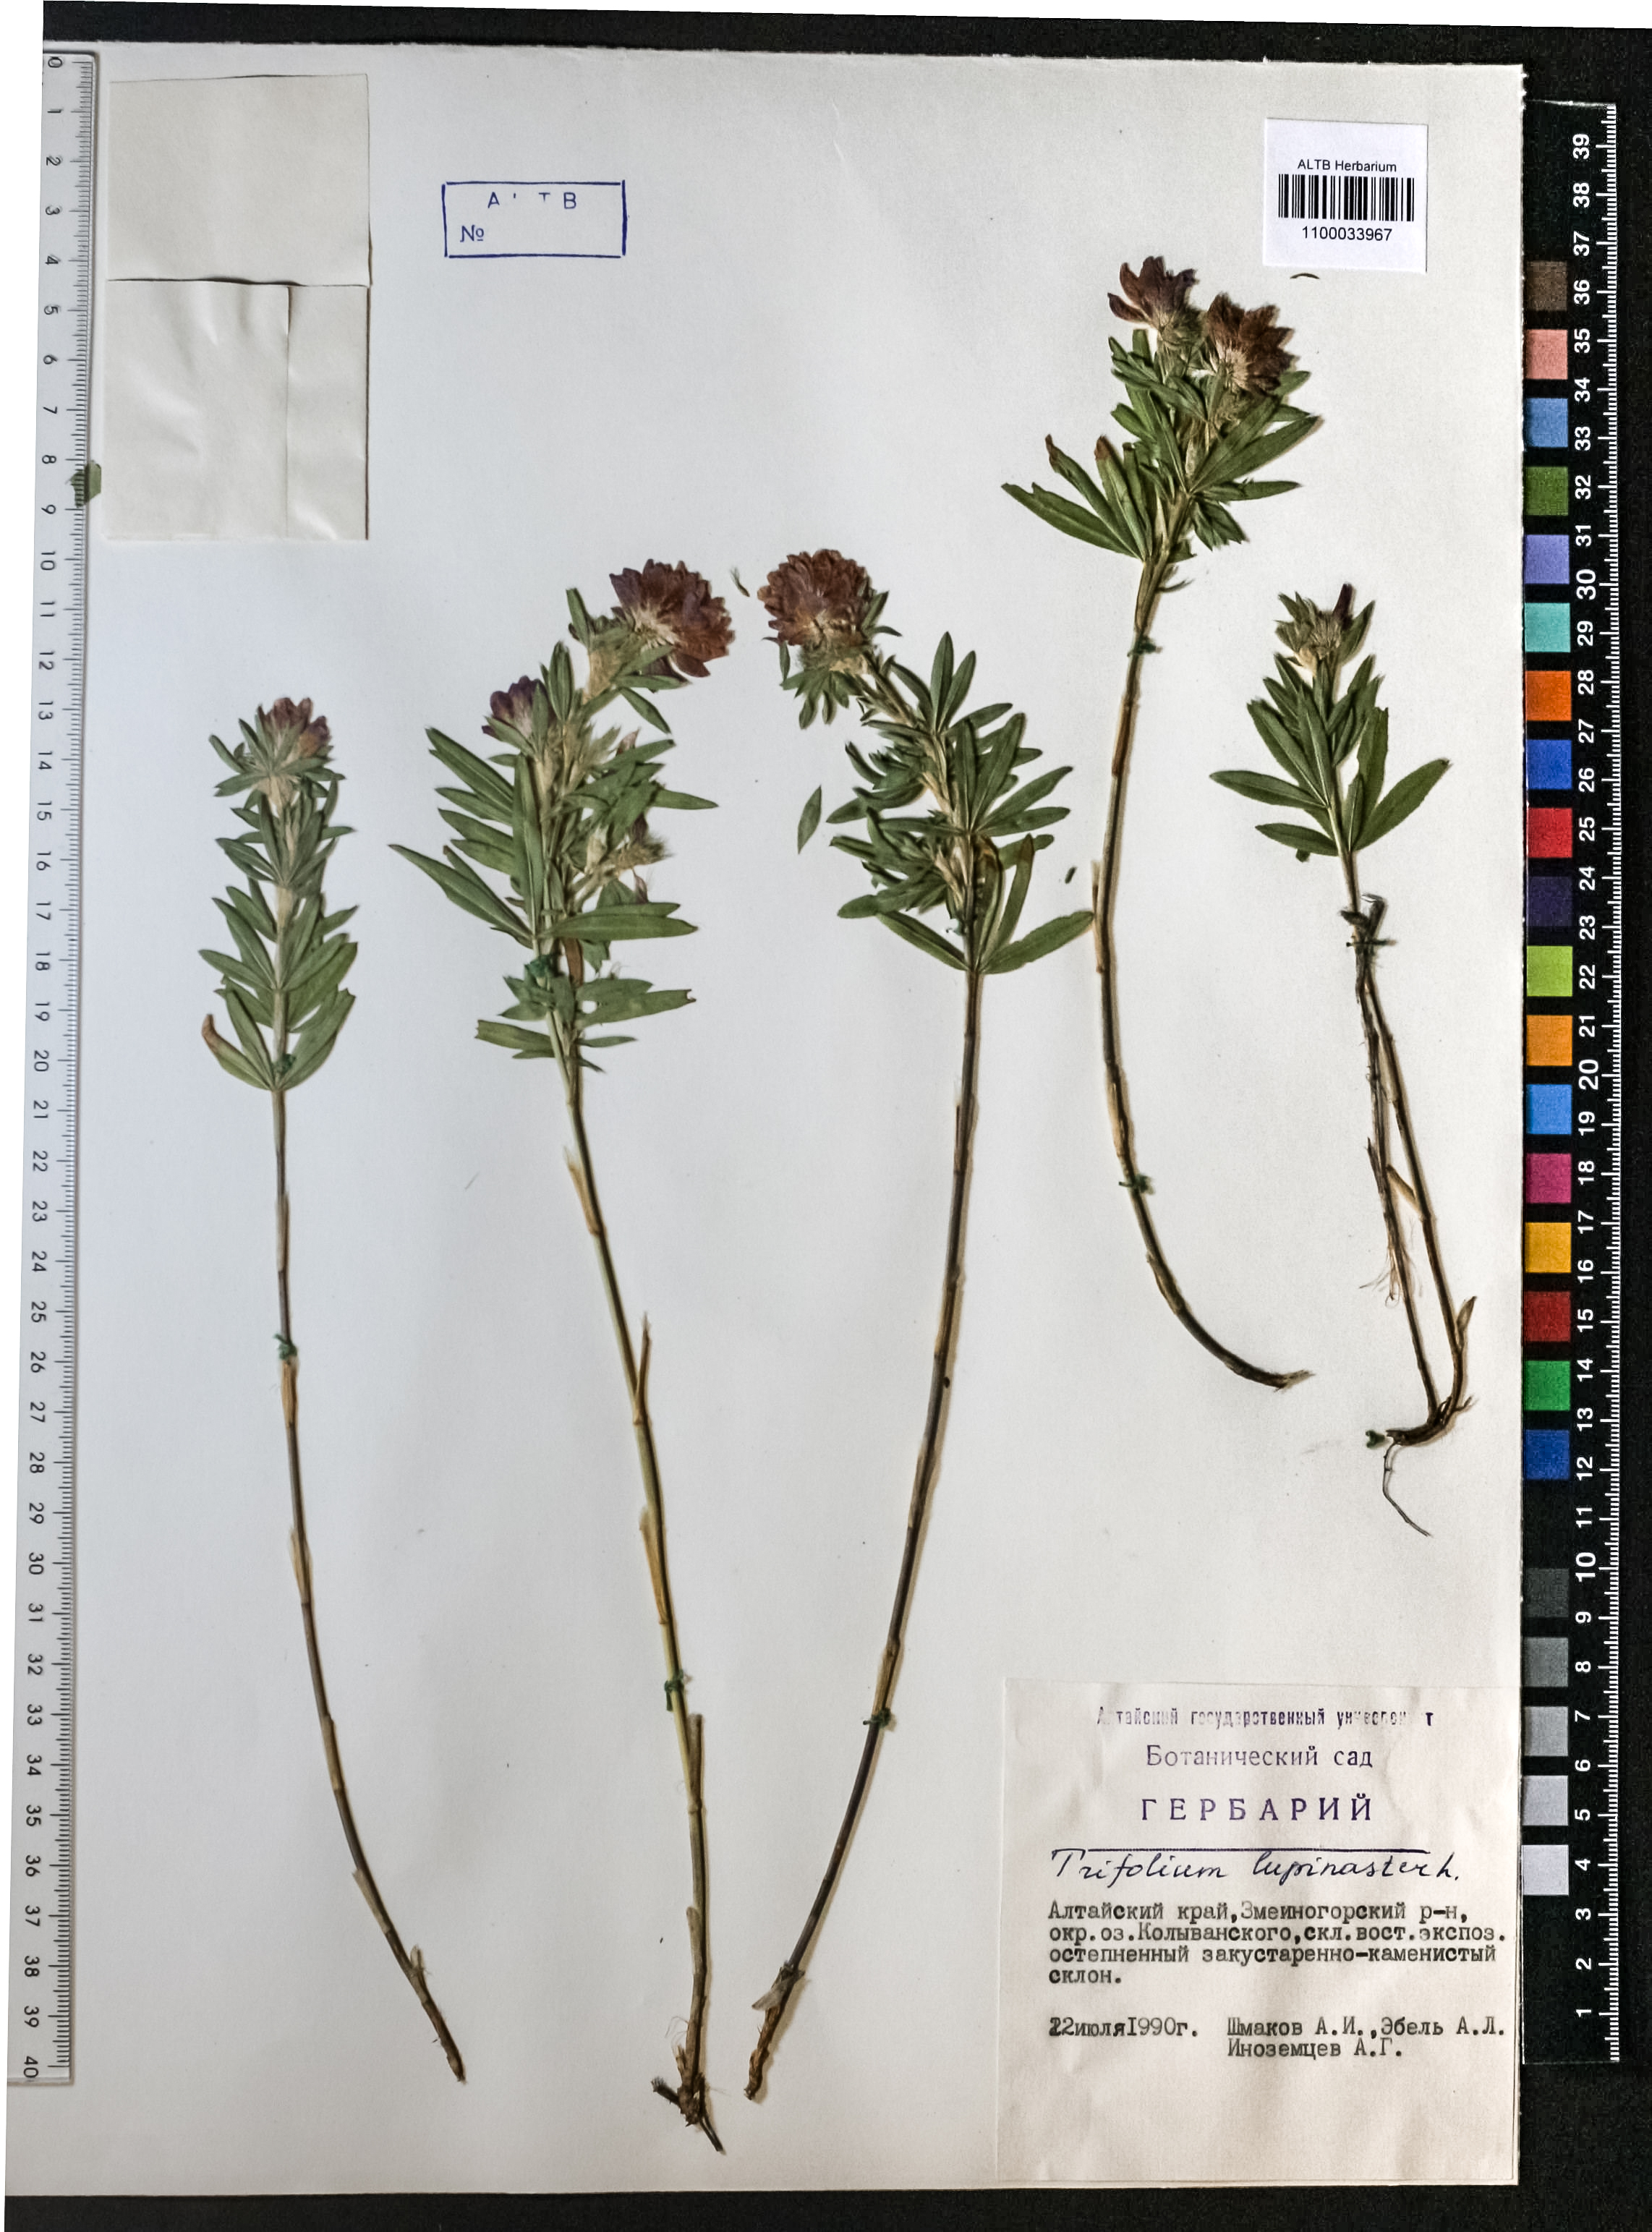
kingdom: Plantae
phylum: Tracheophyta
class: Magnoliopsida
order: Fabales
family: Fabaceae
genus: Trifolium
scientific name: Trifolium lupinaster
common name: Lupine clover
